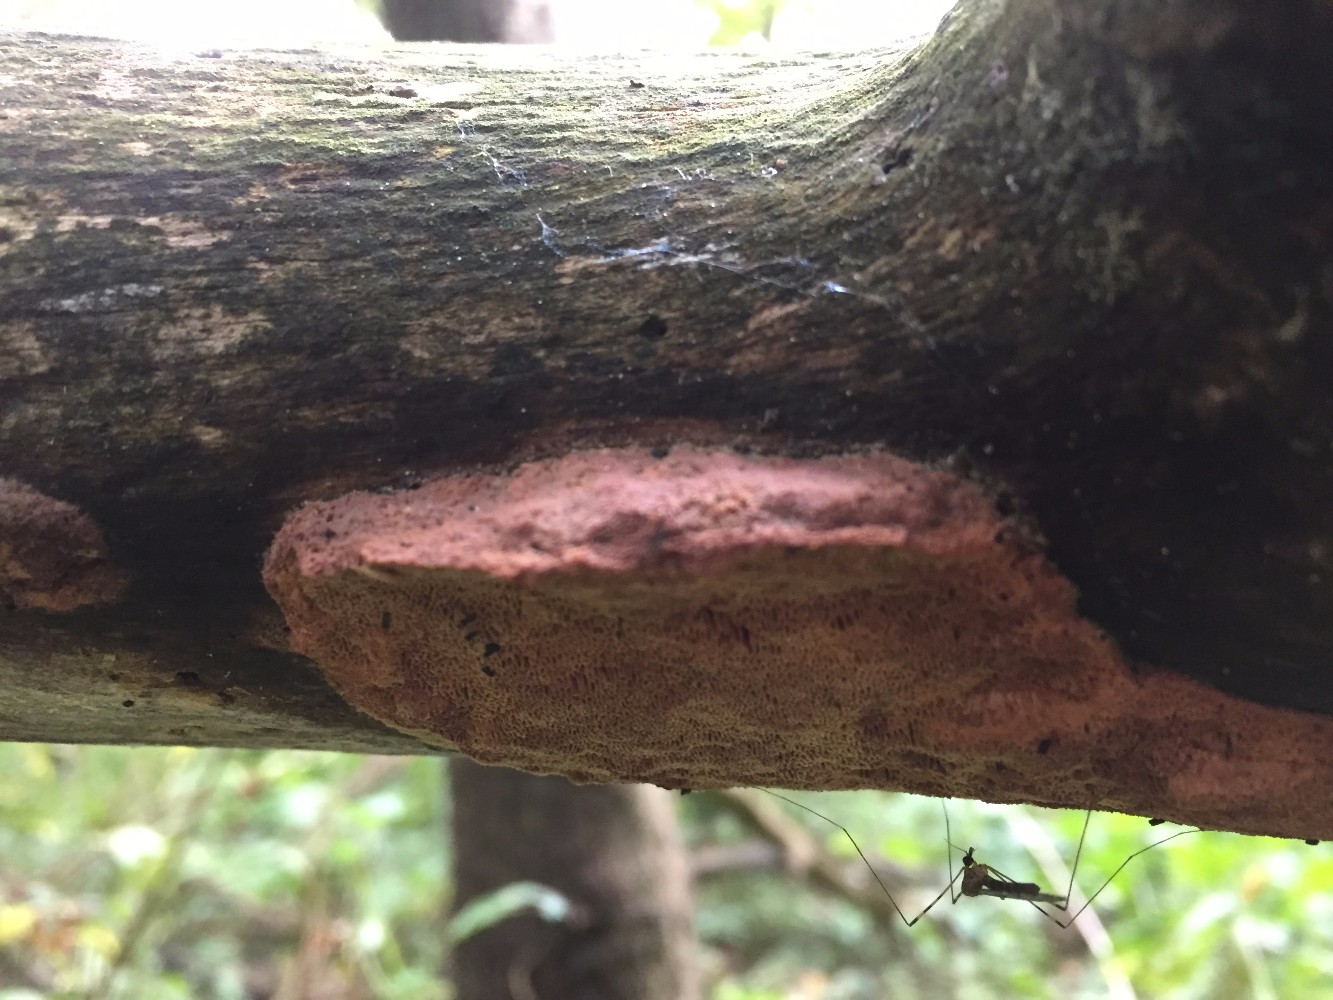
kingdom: Fungi
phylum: Basidiomycota
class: Agaricomycetes
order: Polyporales
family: Phanerochaetaceae
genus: Hapalopilus
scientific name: Hapalopilus rutilans
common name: rødlig okkerporesvamp
